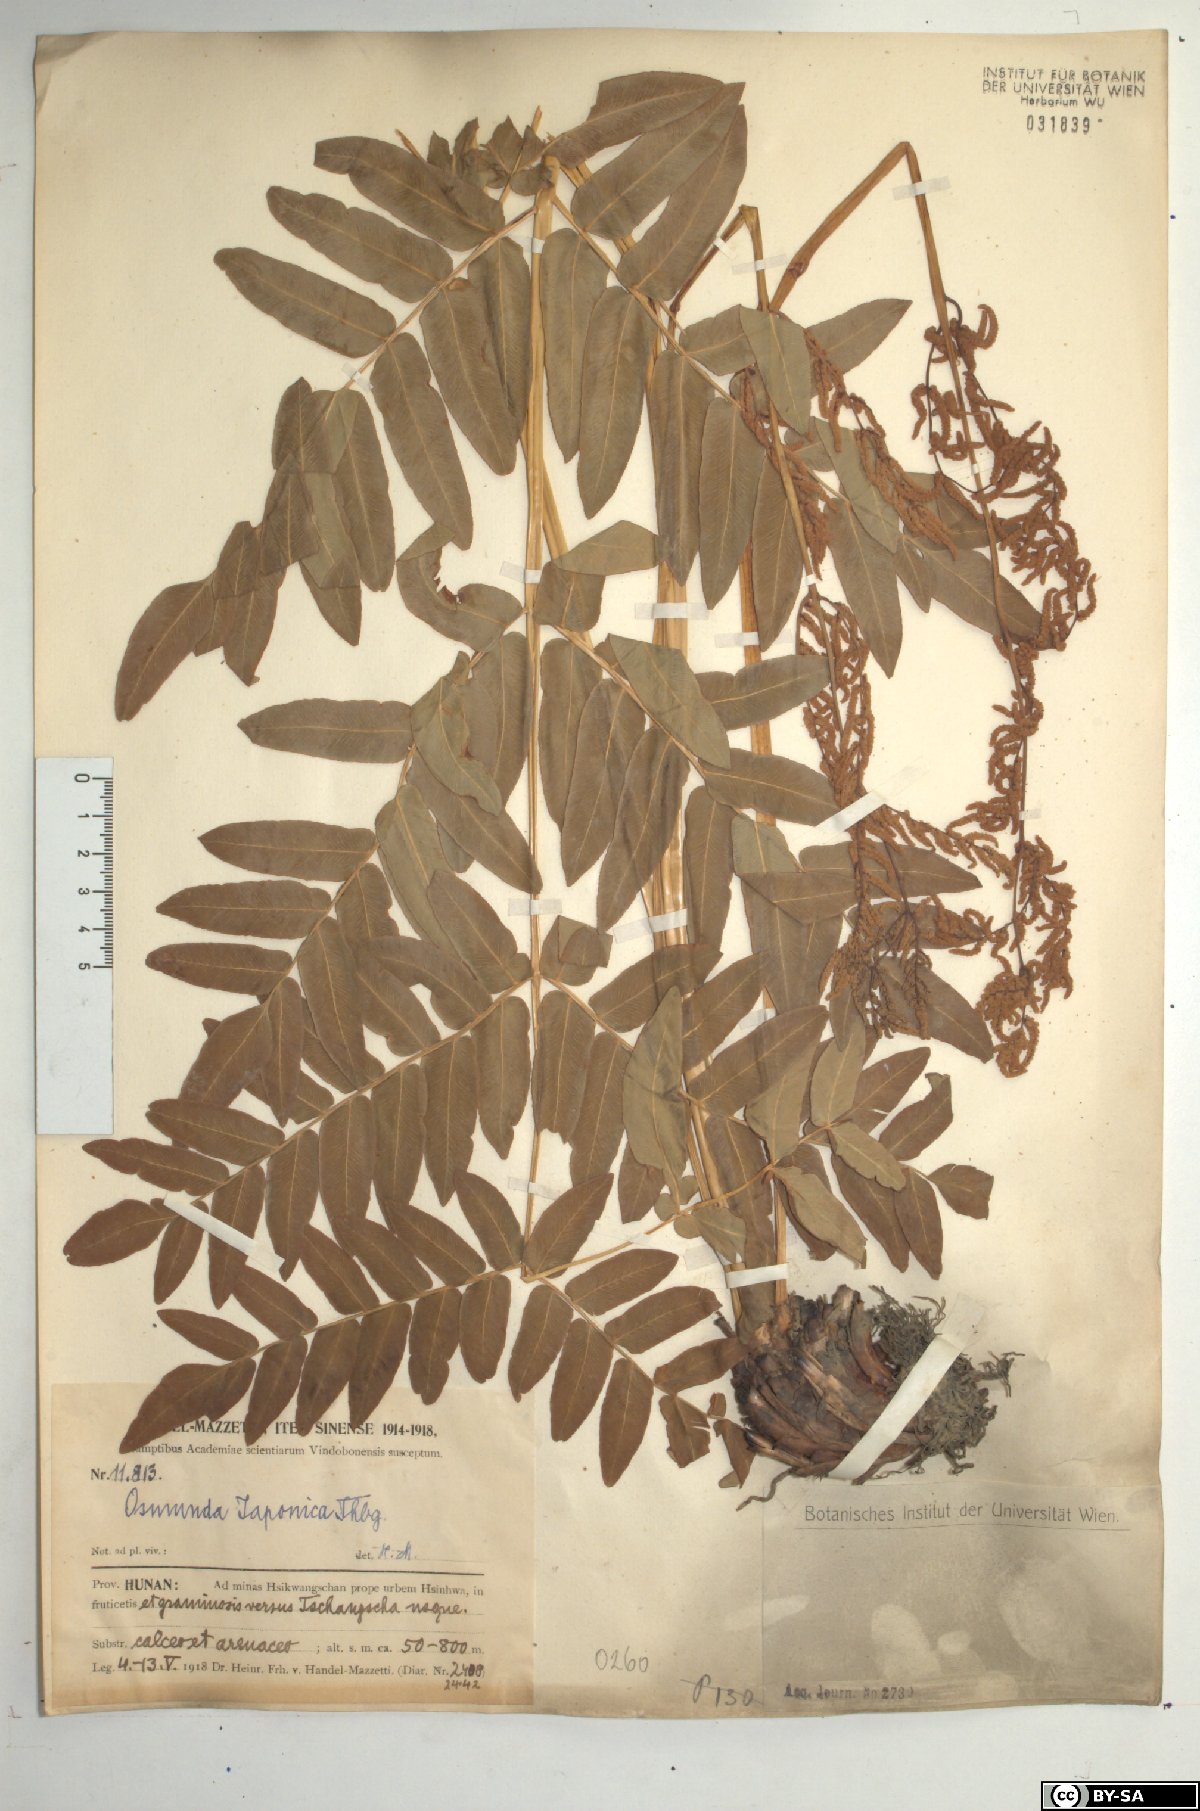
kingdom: Plantae
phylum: Tracheophyta
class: Polypodiopsida
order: Osmundales
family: Osmundaceae
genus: Osmunda
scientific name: Osmunda japonica
